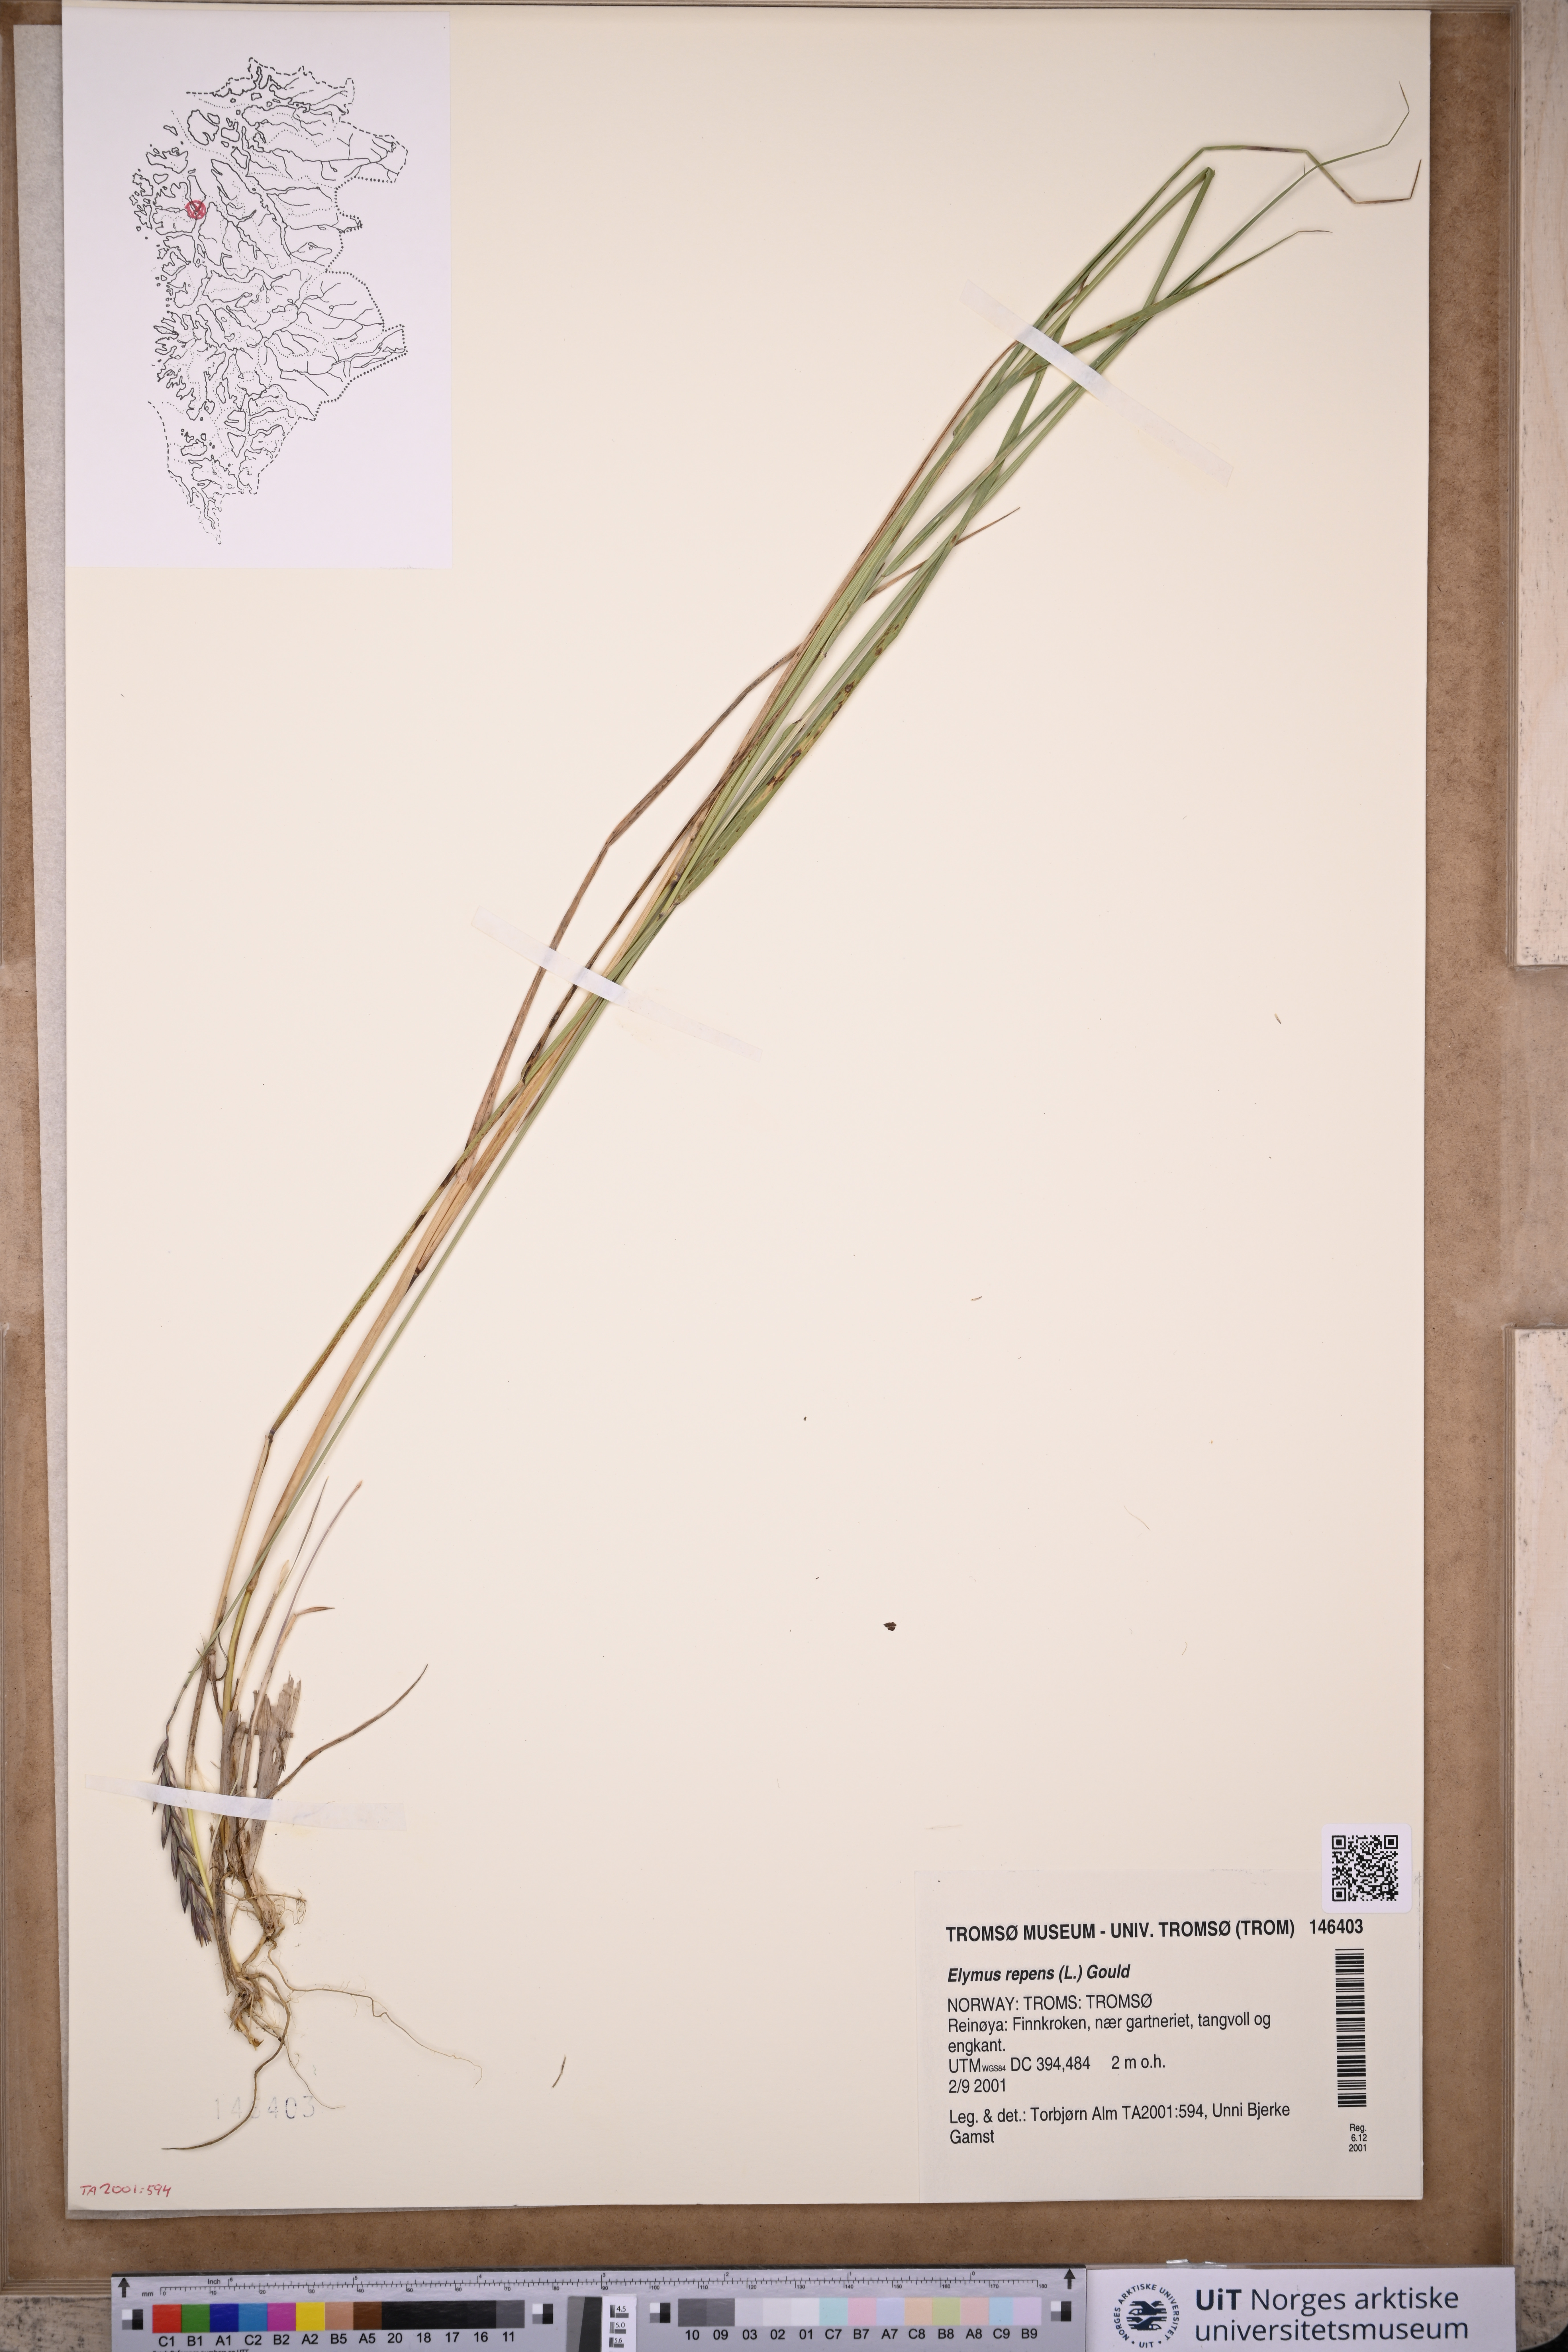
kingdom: Plantae
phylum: Tracheophyta
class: Liliopsida
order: Poales
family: Poaceae
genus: Elymus
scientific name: Elymus repens
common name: Quackgrass
